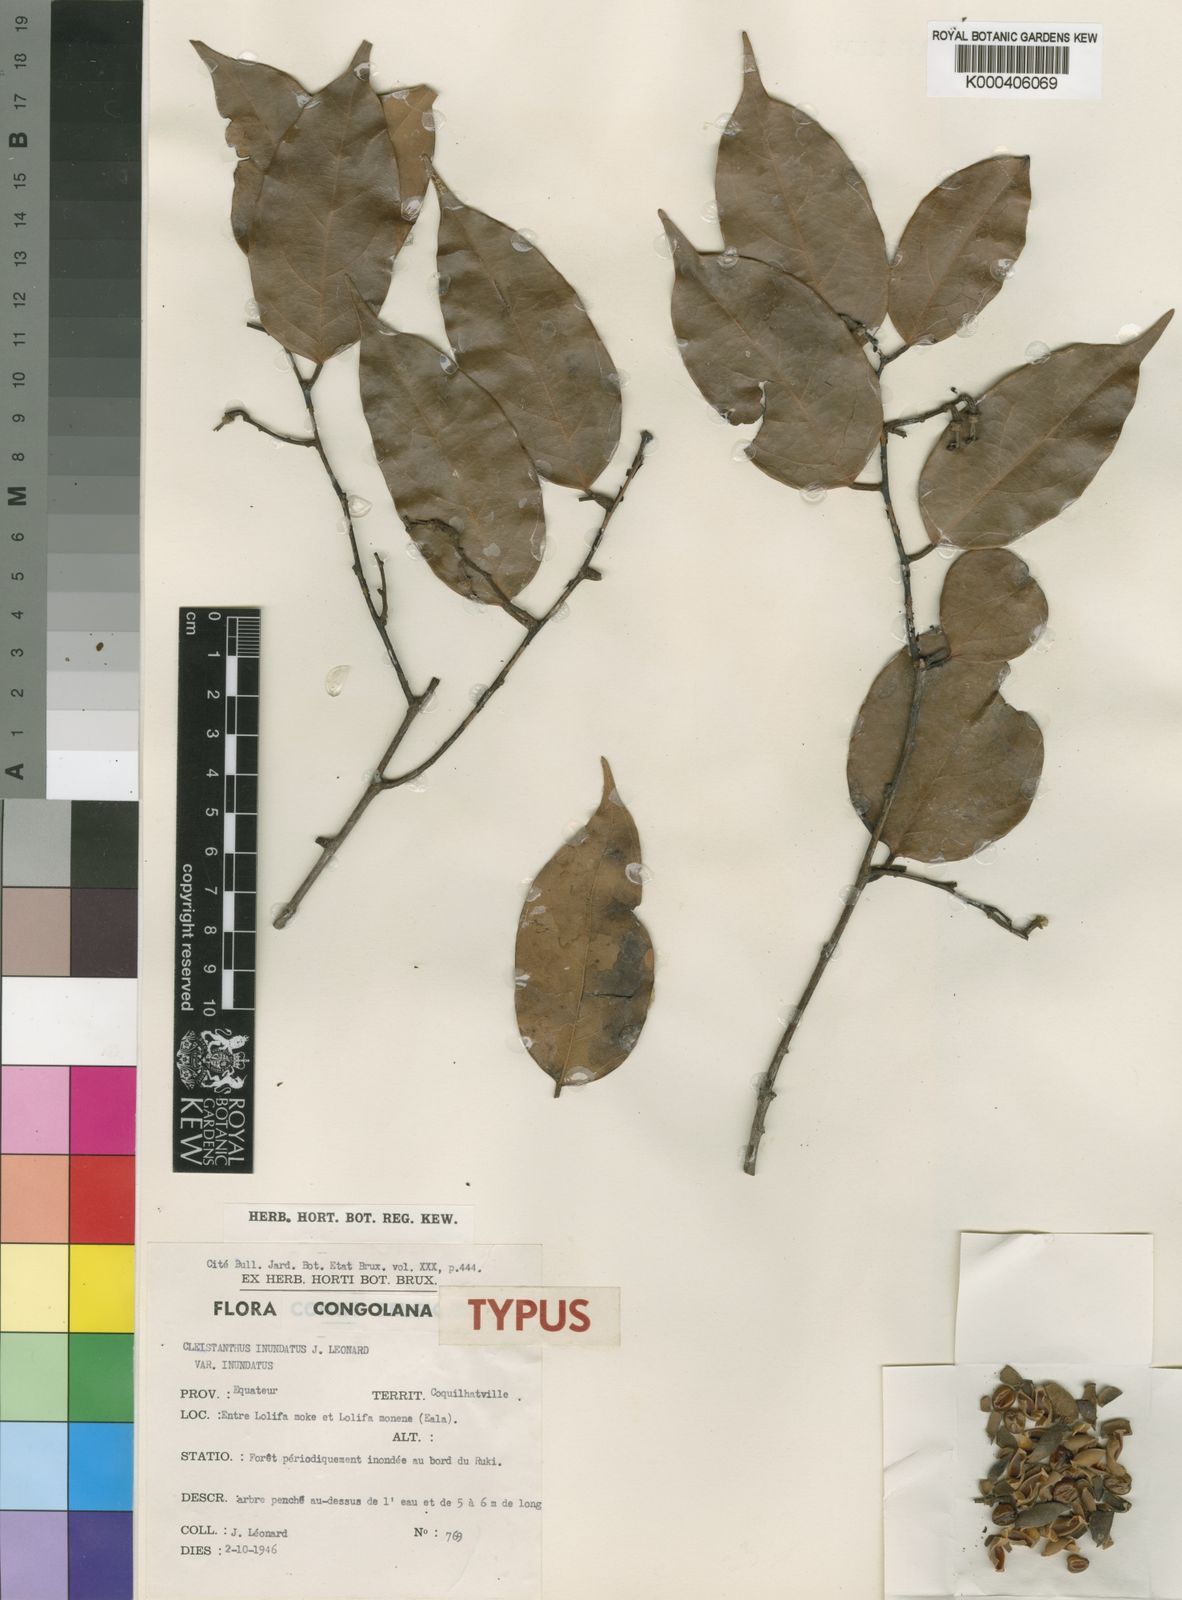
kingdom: Plantae
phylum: Tracheophyta
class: Magnoliopsida
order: Malpighiales
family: Phyllanthaceae
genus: Cleistanthus
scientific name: Cleistanthus
